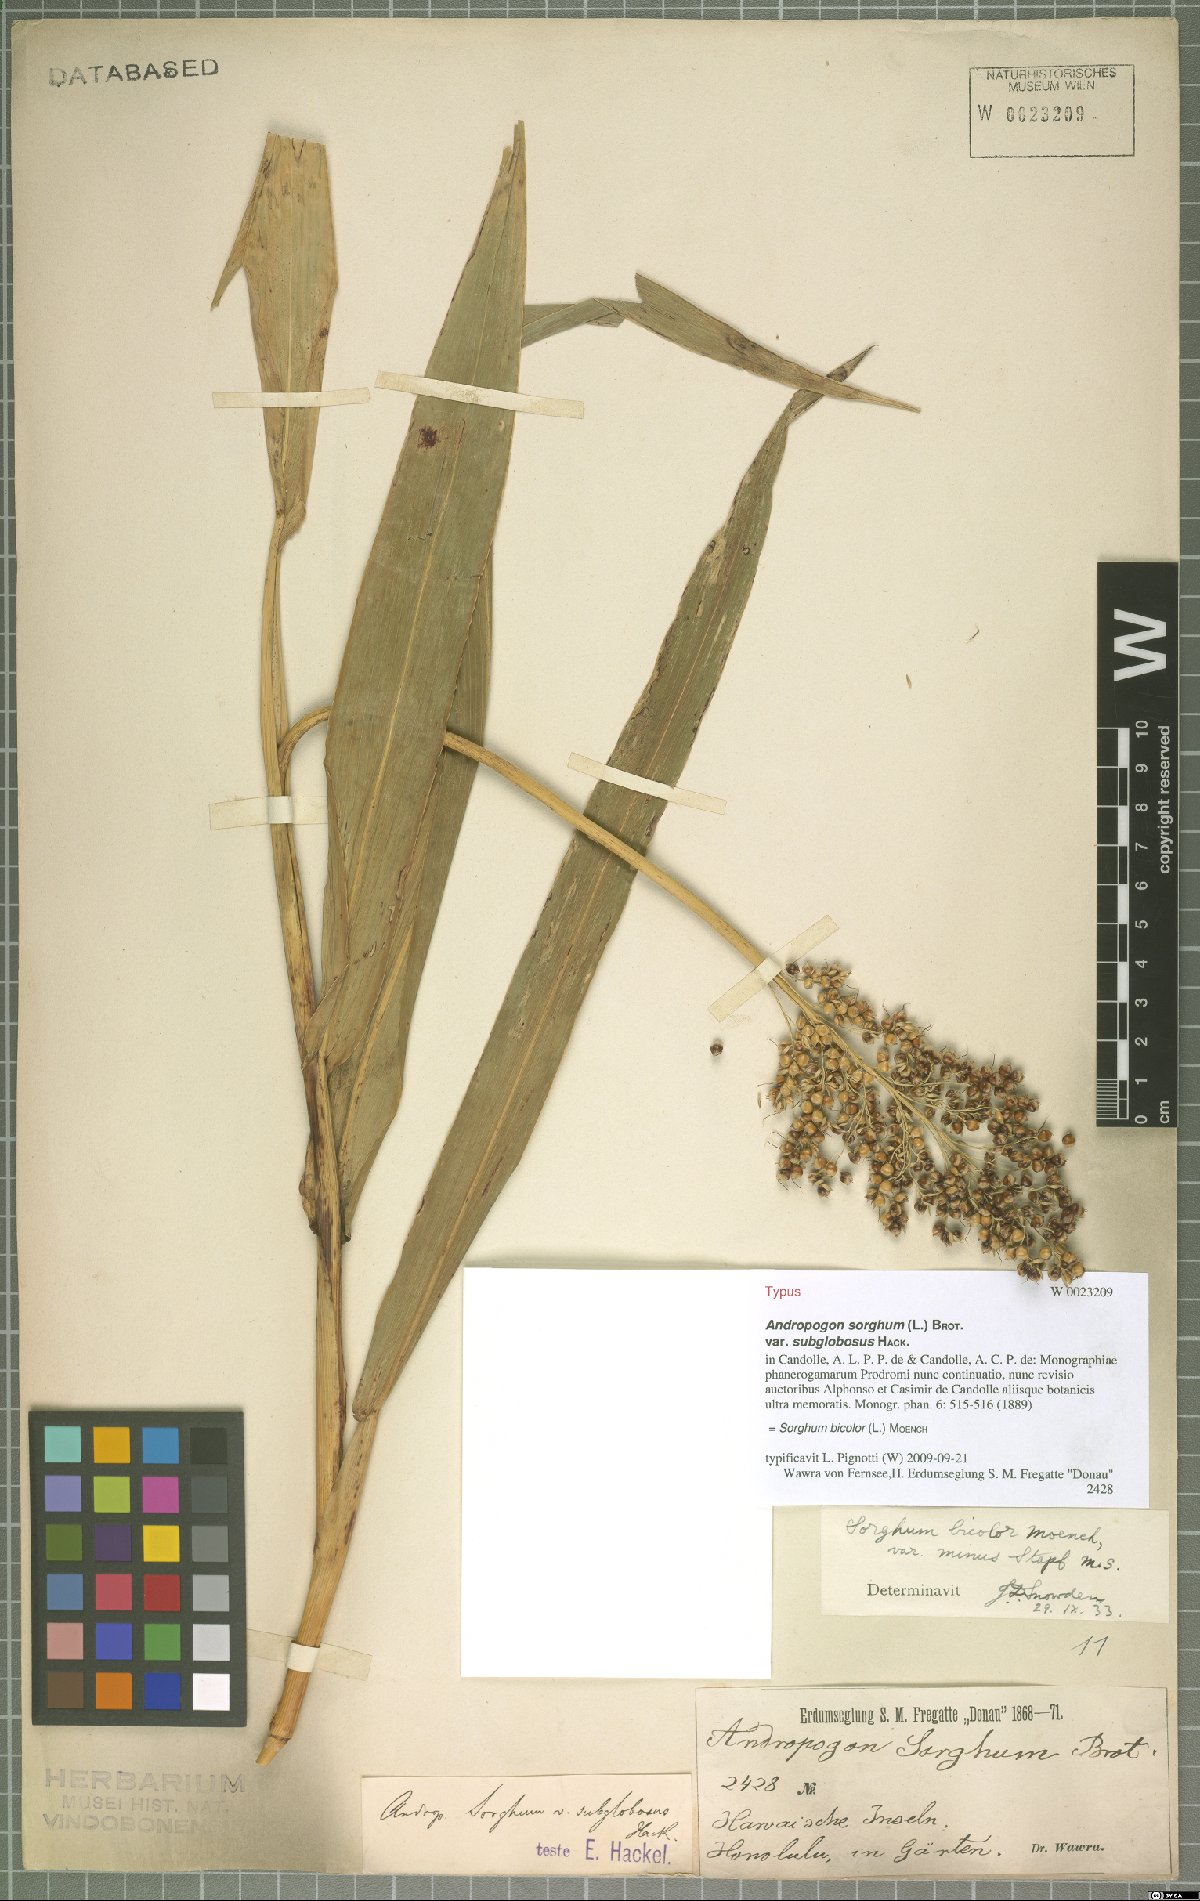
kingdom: Plantae
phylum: Tracheophyta
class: Liliopsida
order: Poales
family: Poaceae
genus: Sorghum
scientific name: Sorghum bicolor
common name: Sorghum
